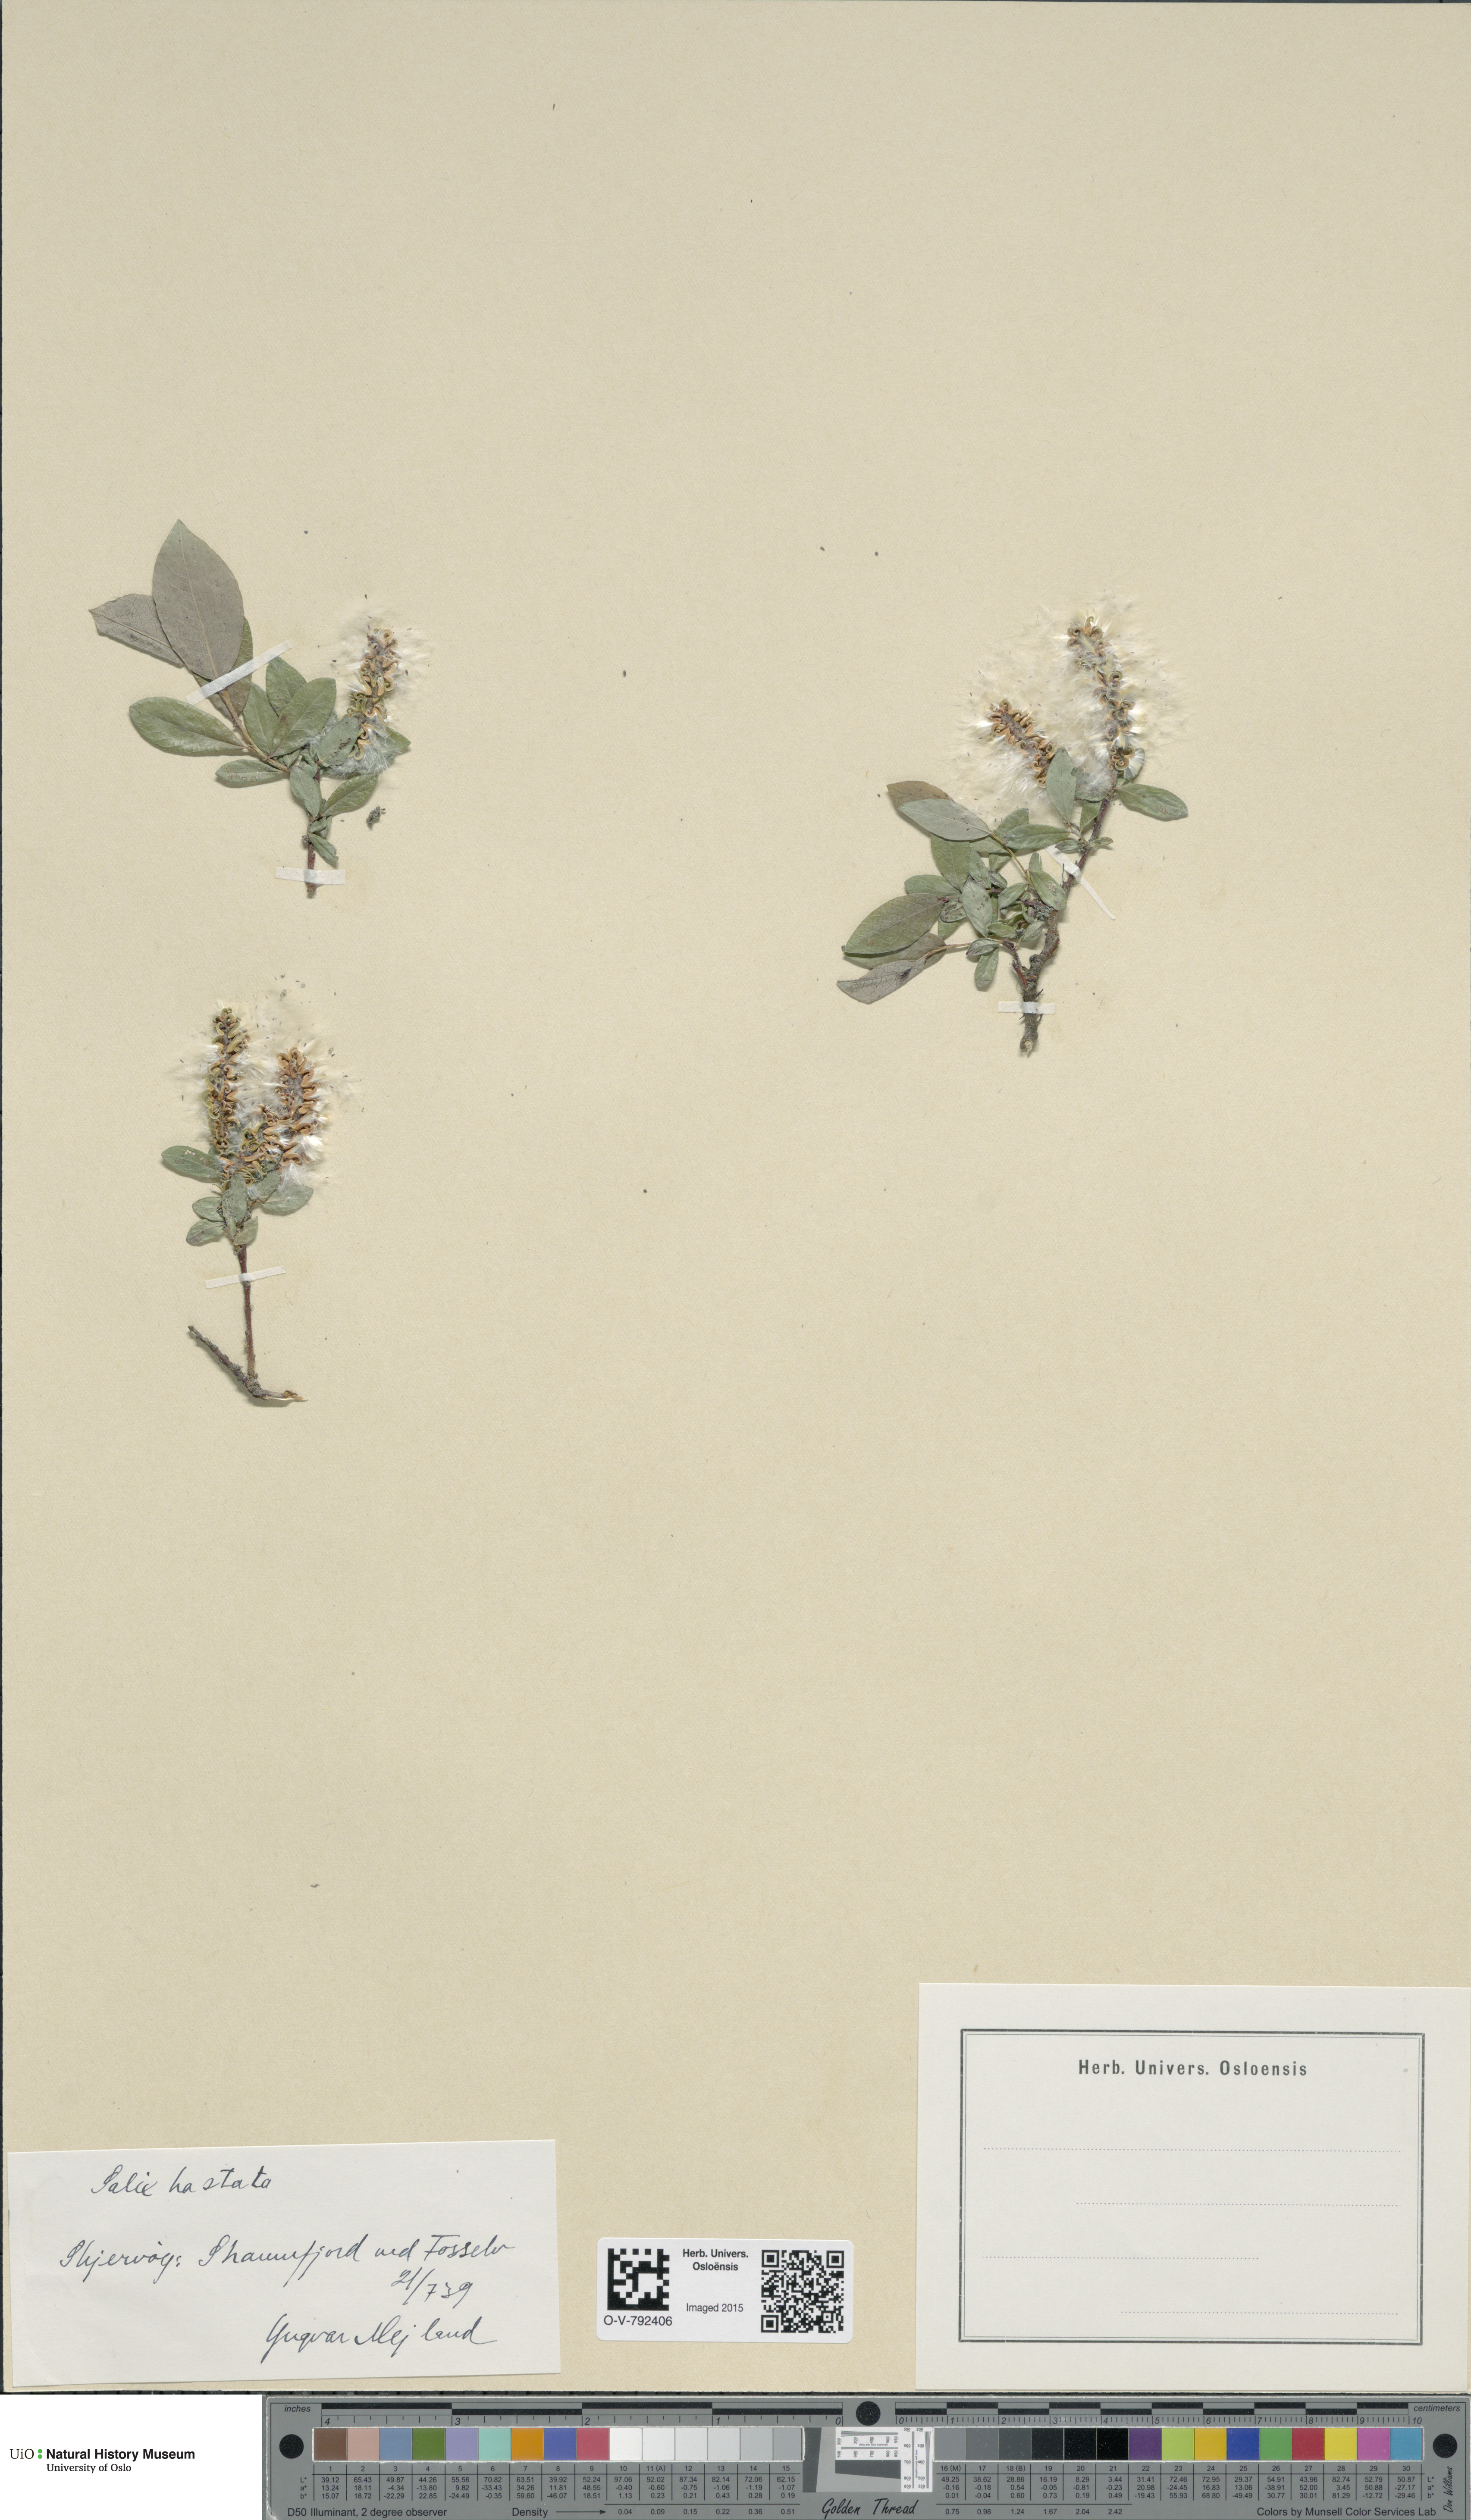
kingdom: Plantae
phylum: Tracheophyta
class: Magnoliopsida
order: Malpighiales
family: Salicaceae
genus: Salix
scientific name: Salix hastata
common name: Halberd willow
